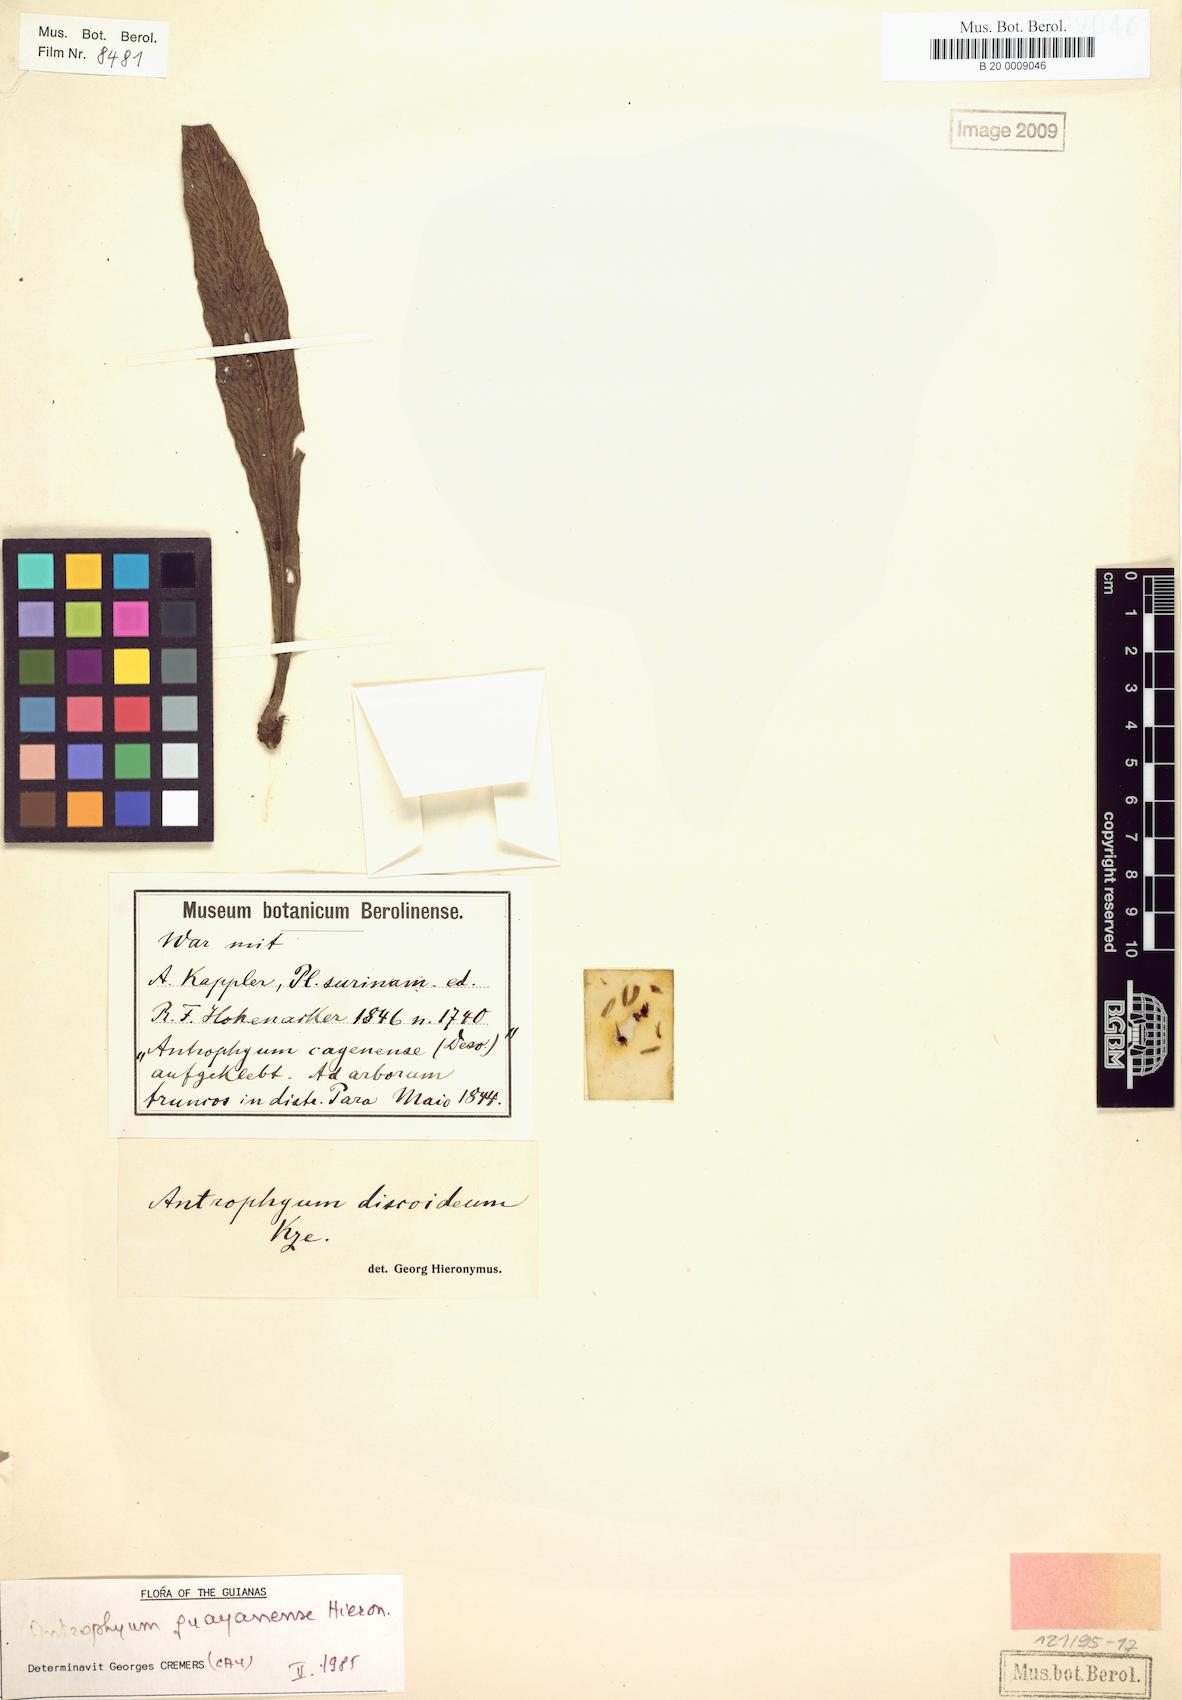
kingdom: Plantae
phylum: Tracheophyta
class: Polypodiopsida
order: Polypodiales
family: Pteridaceae
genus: Polytaenium
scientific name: Polytaenium guayanense
